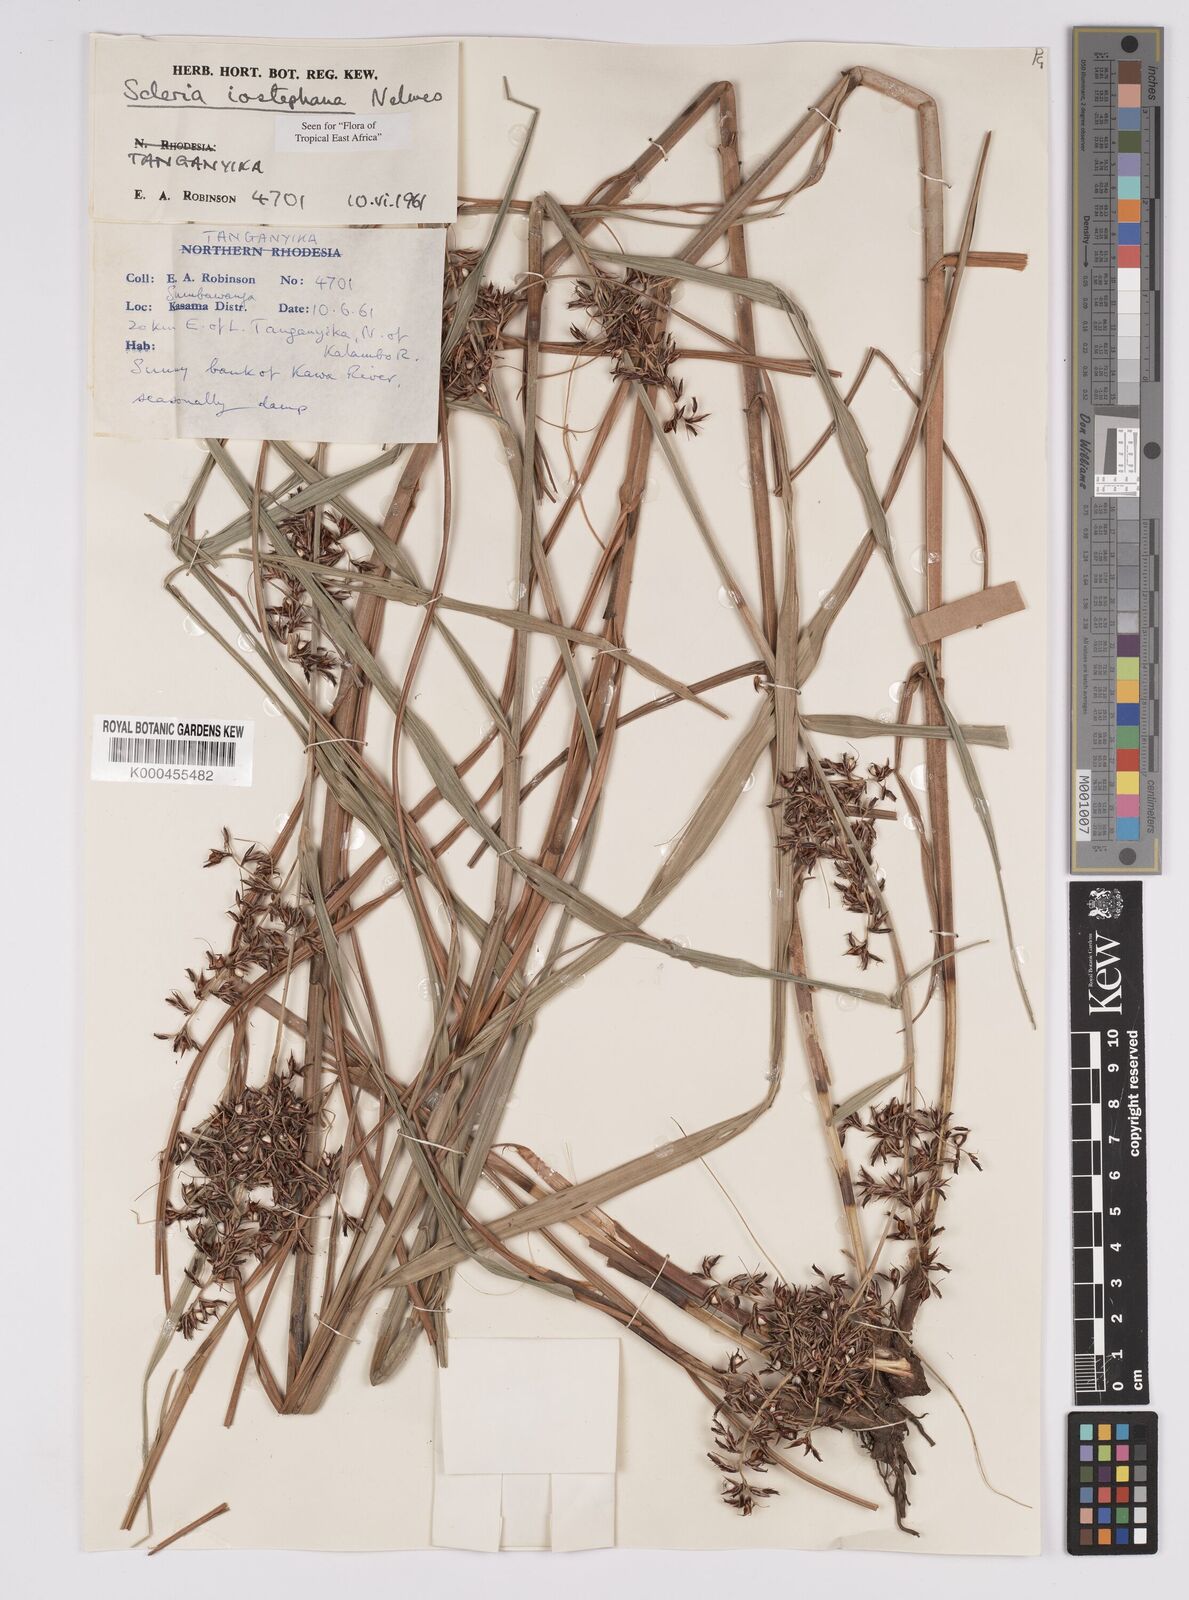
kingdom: Plantae
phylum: Tracheophyta
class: Liliopsida
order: Poales
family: Cyperaceae
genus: Scleria
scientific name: Scleria iostephana
